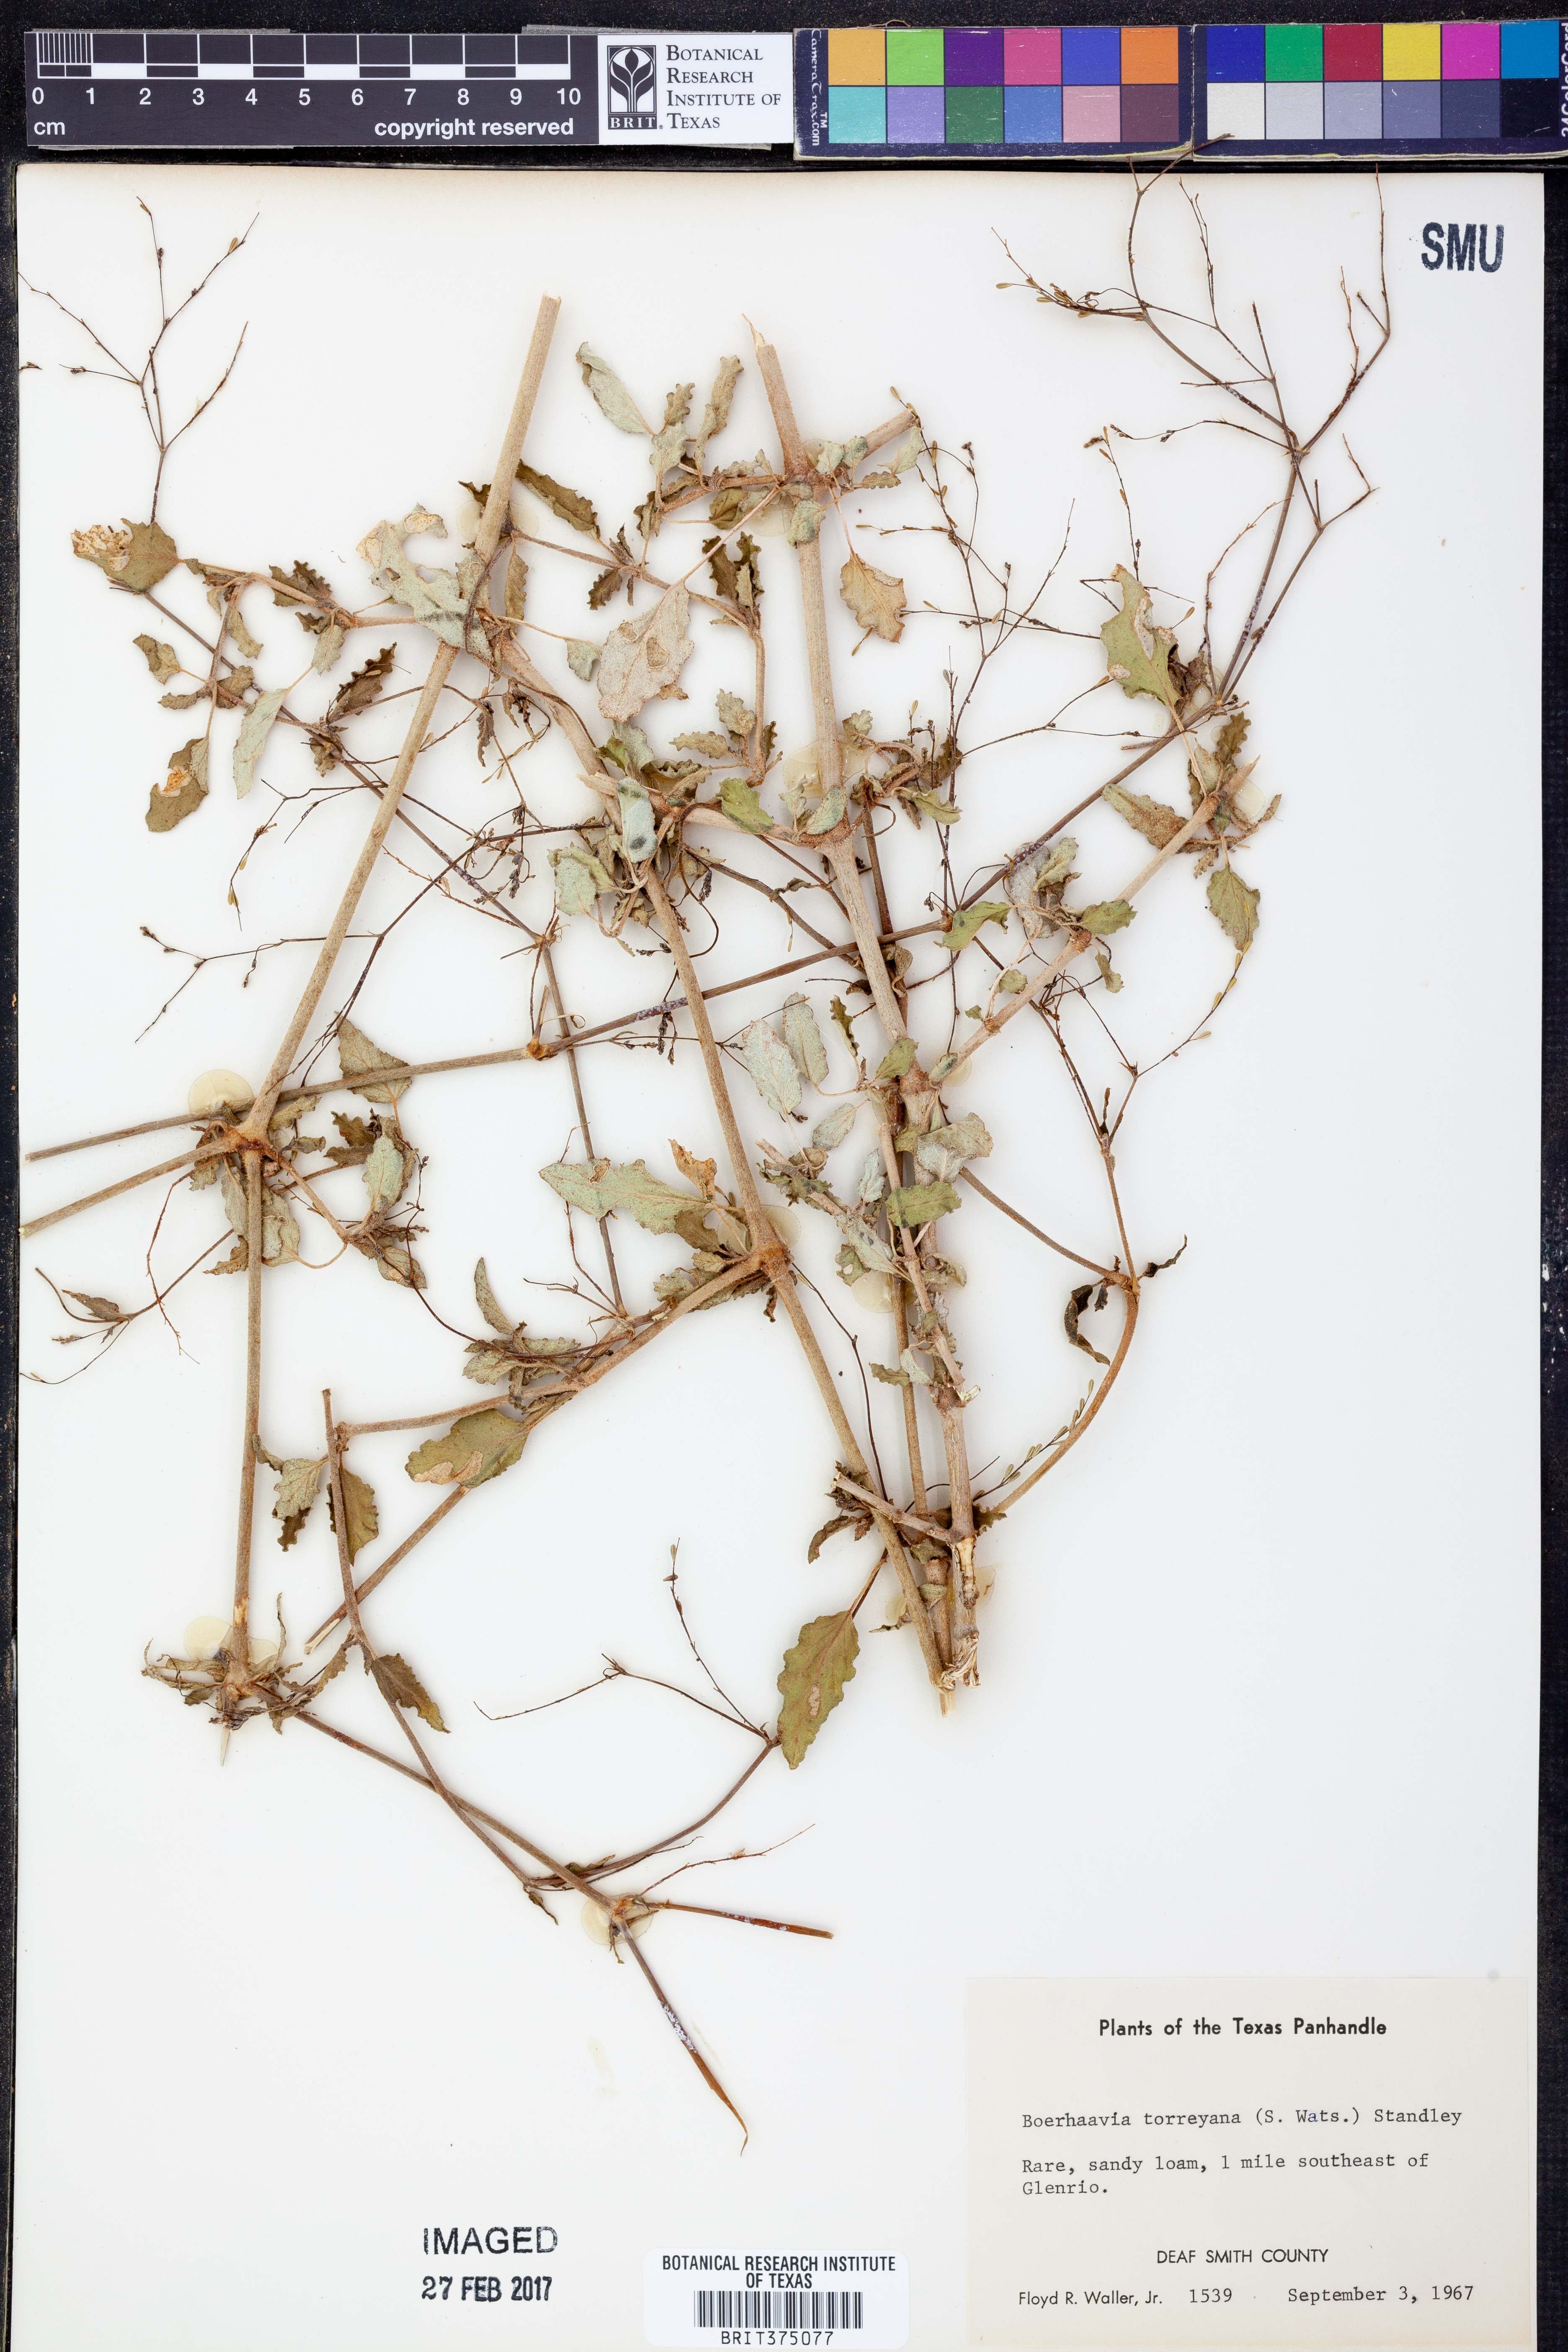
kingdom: Plantae
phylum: Tracheophyta
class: Magnoliopsida
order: Caryophyllales
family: Nyctaginaceae
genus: Boerhavia
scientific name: Boerhavia torreyana
